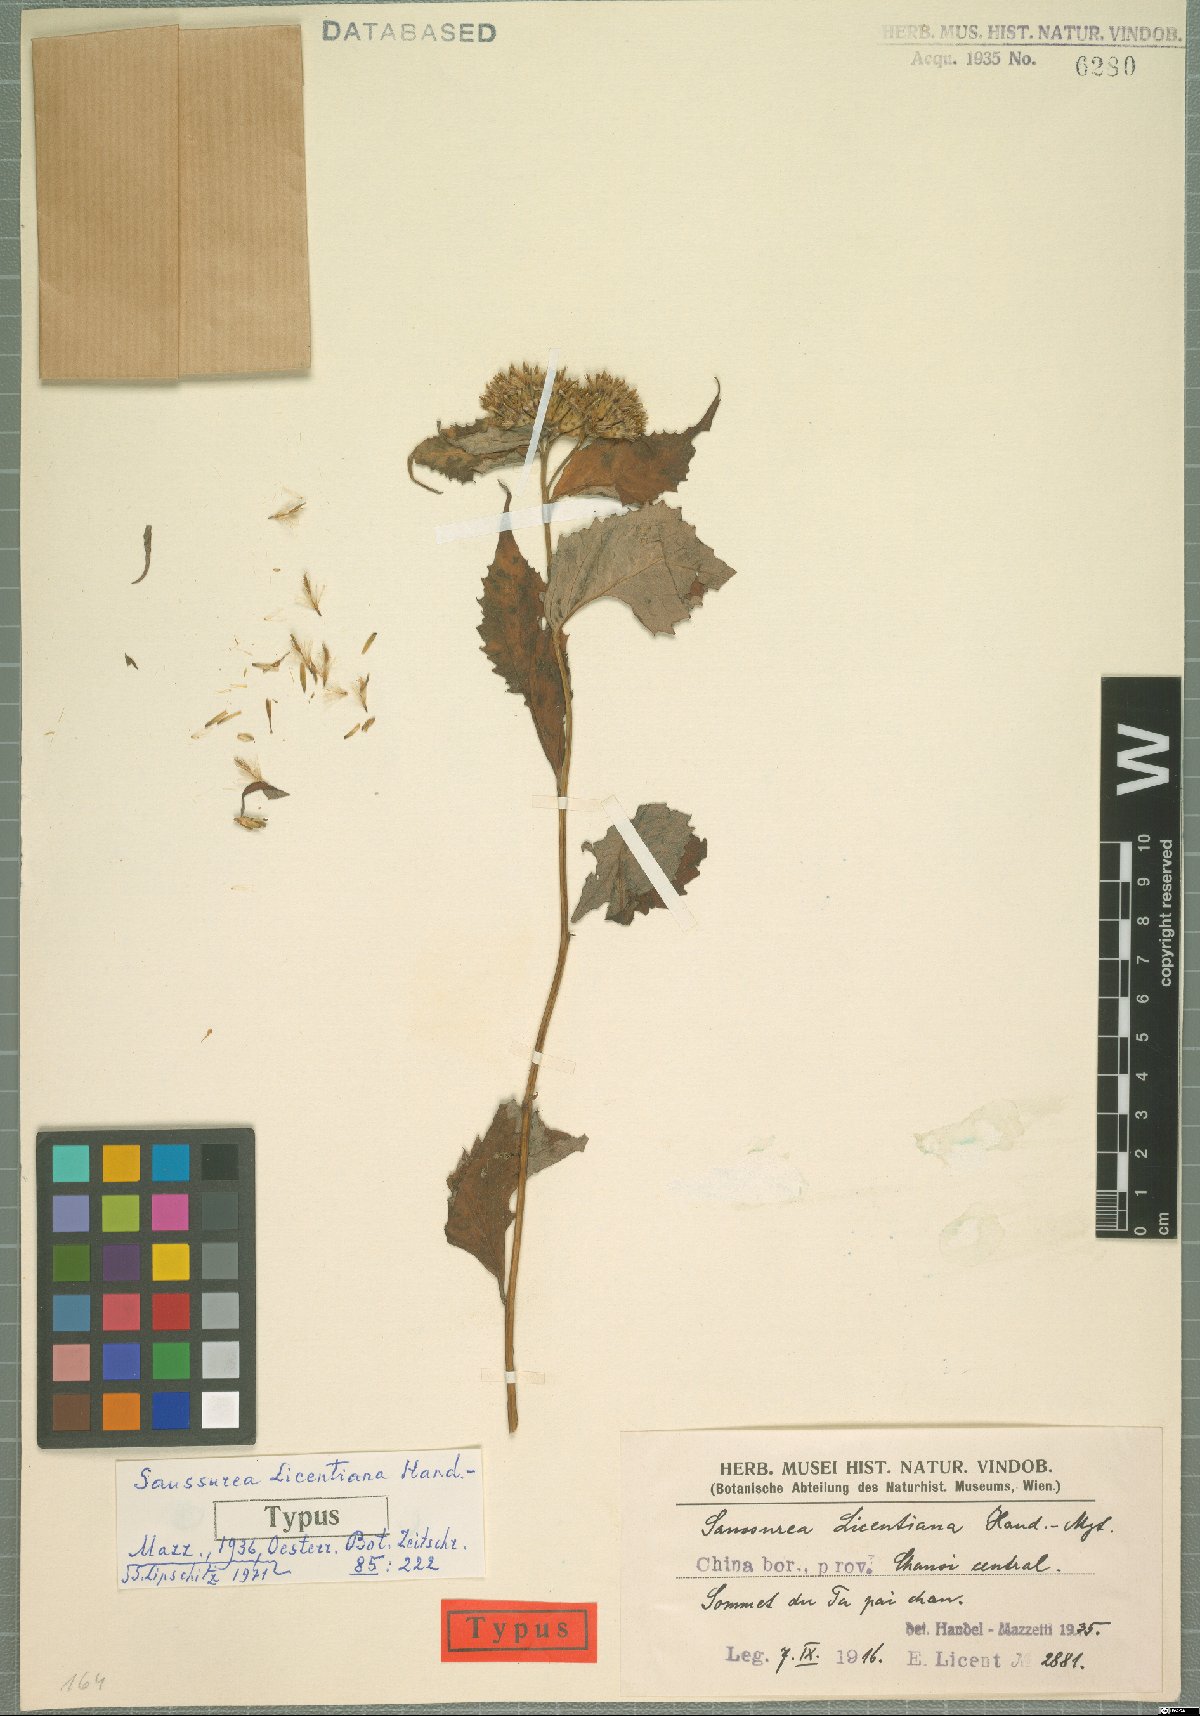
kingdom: Plantae
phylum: Tracheophyta
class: Magnoliopsida
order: Asterales
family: Asteraceae
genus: Saussurea
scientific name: Saussurea licentiana
